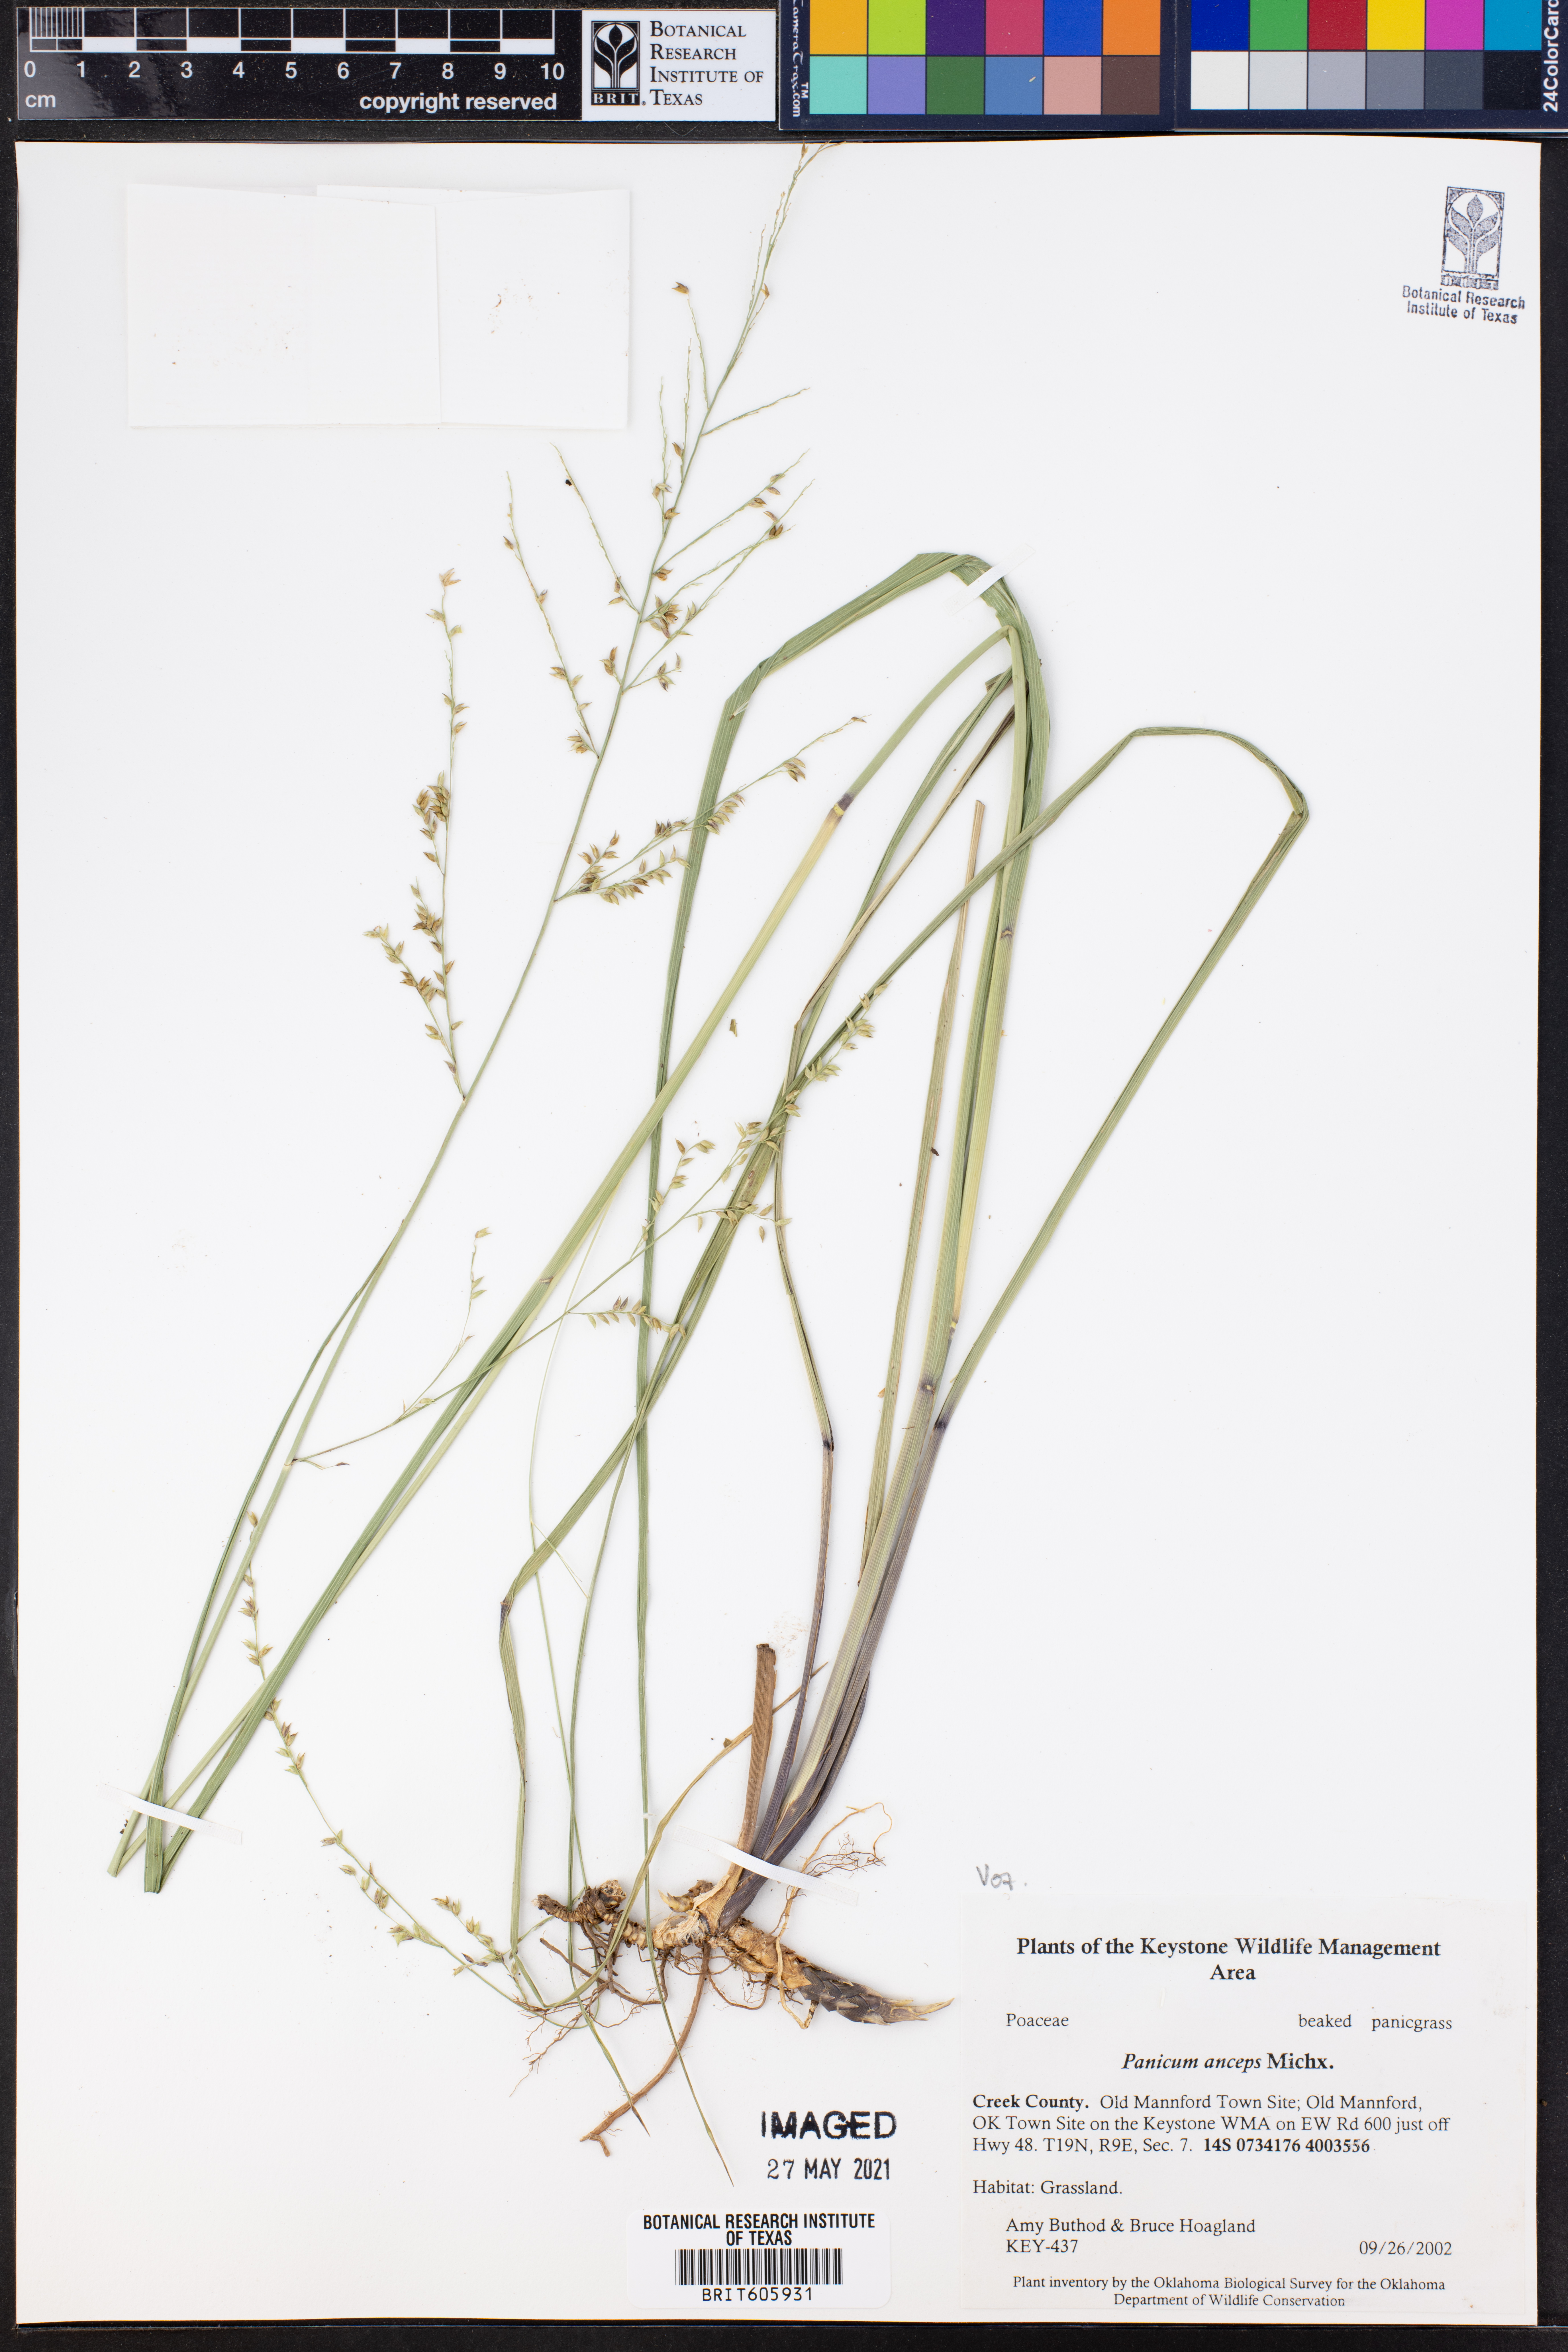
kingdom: Plantae
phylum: Tracheophyta
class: Liliopsida
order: Poales
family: Poaceae
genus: Coleataenia
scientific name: Coleataenia anceps
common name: Beaked panic grass
